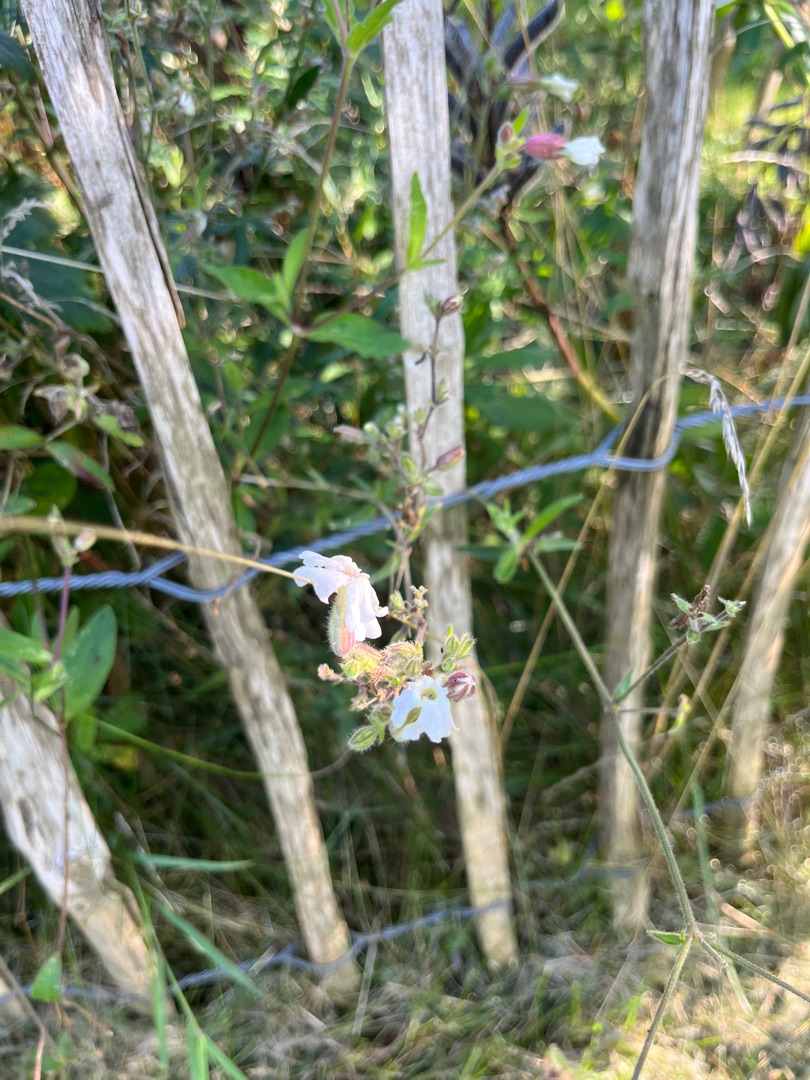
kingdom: Plantae
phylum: Tracheophyta
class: Magnoliopsida
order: Caryophyllales
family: Caryophyllaceae
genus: Silene
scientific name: Silene latifolia
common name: Aftenpragtstjerne
